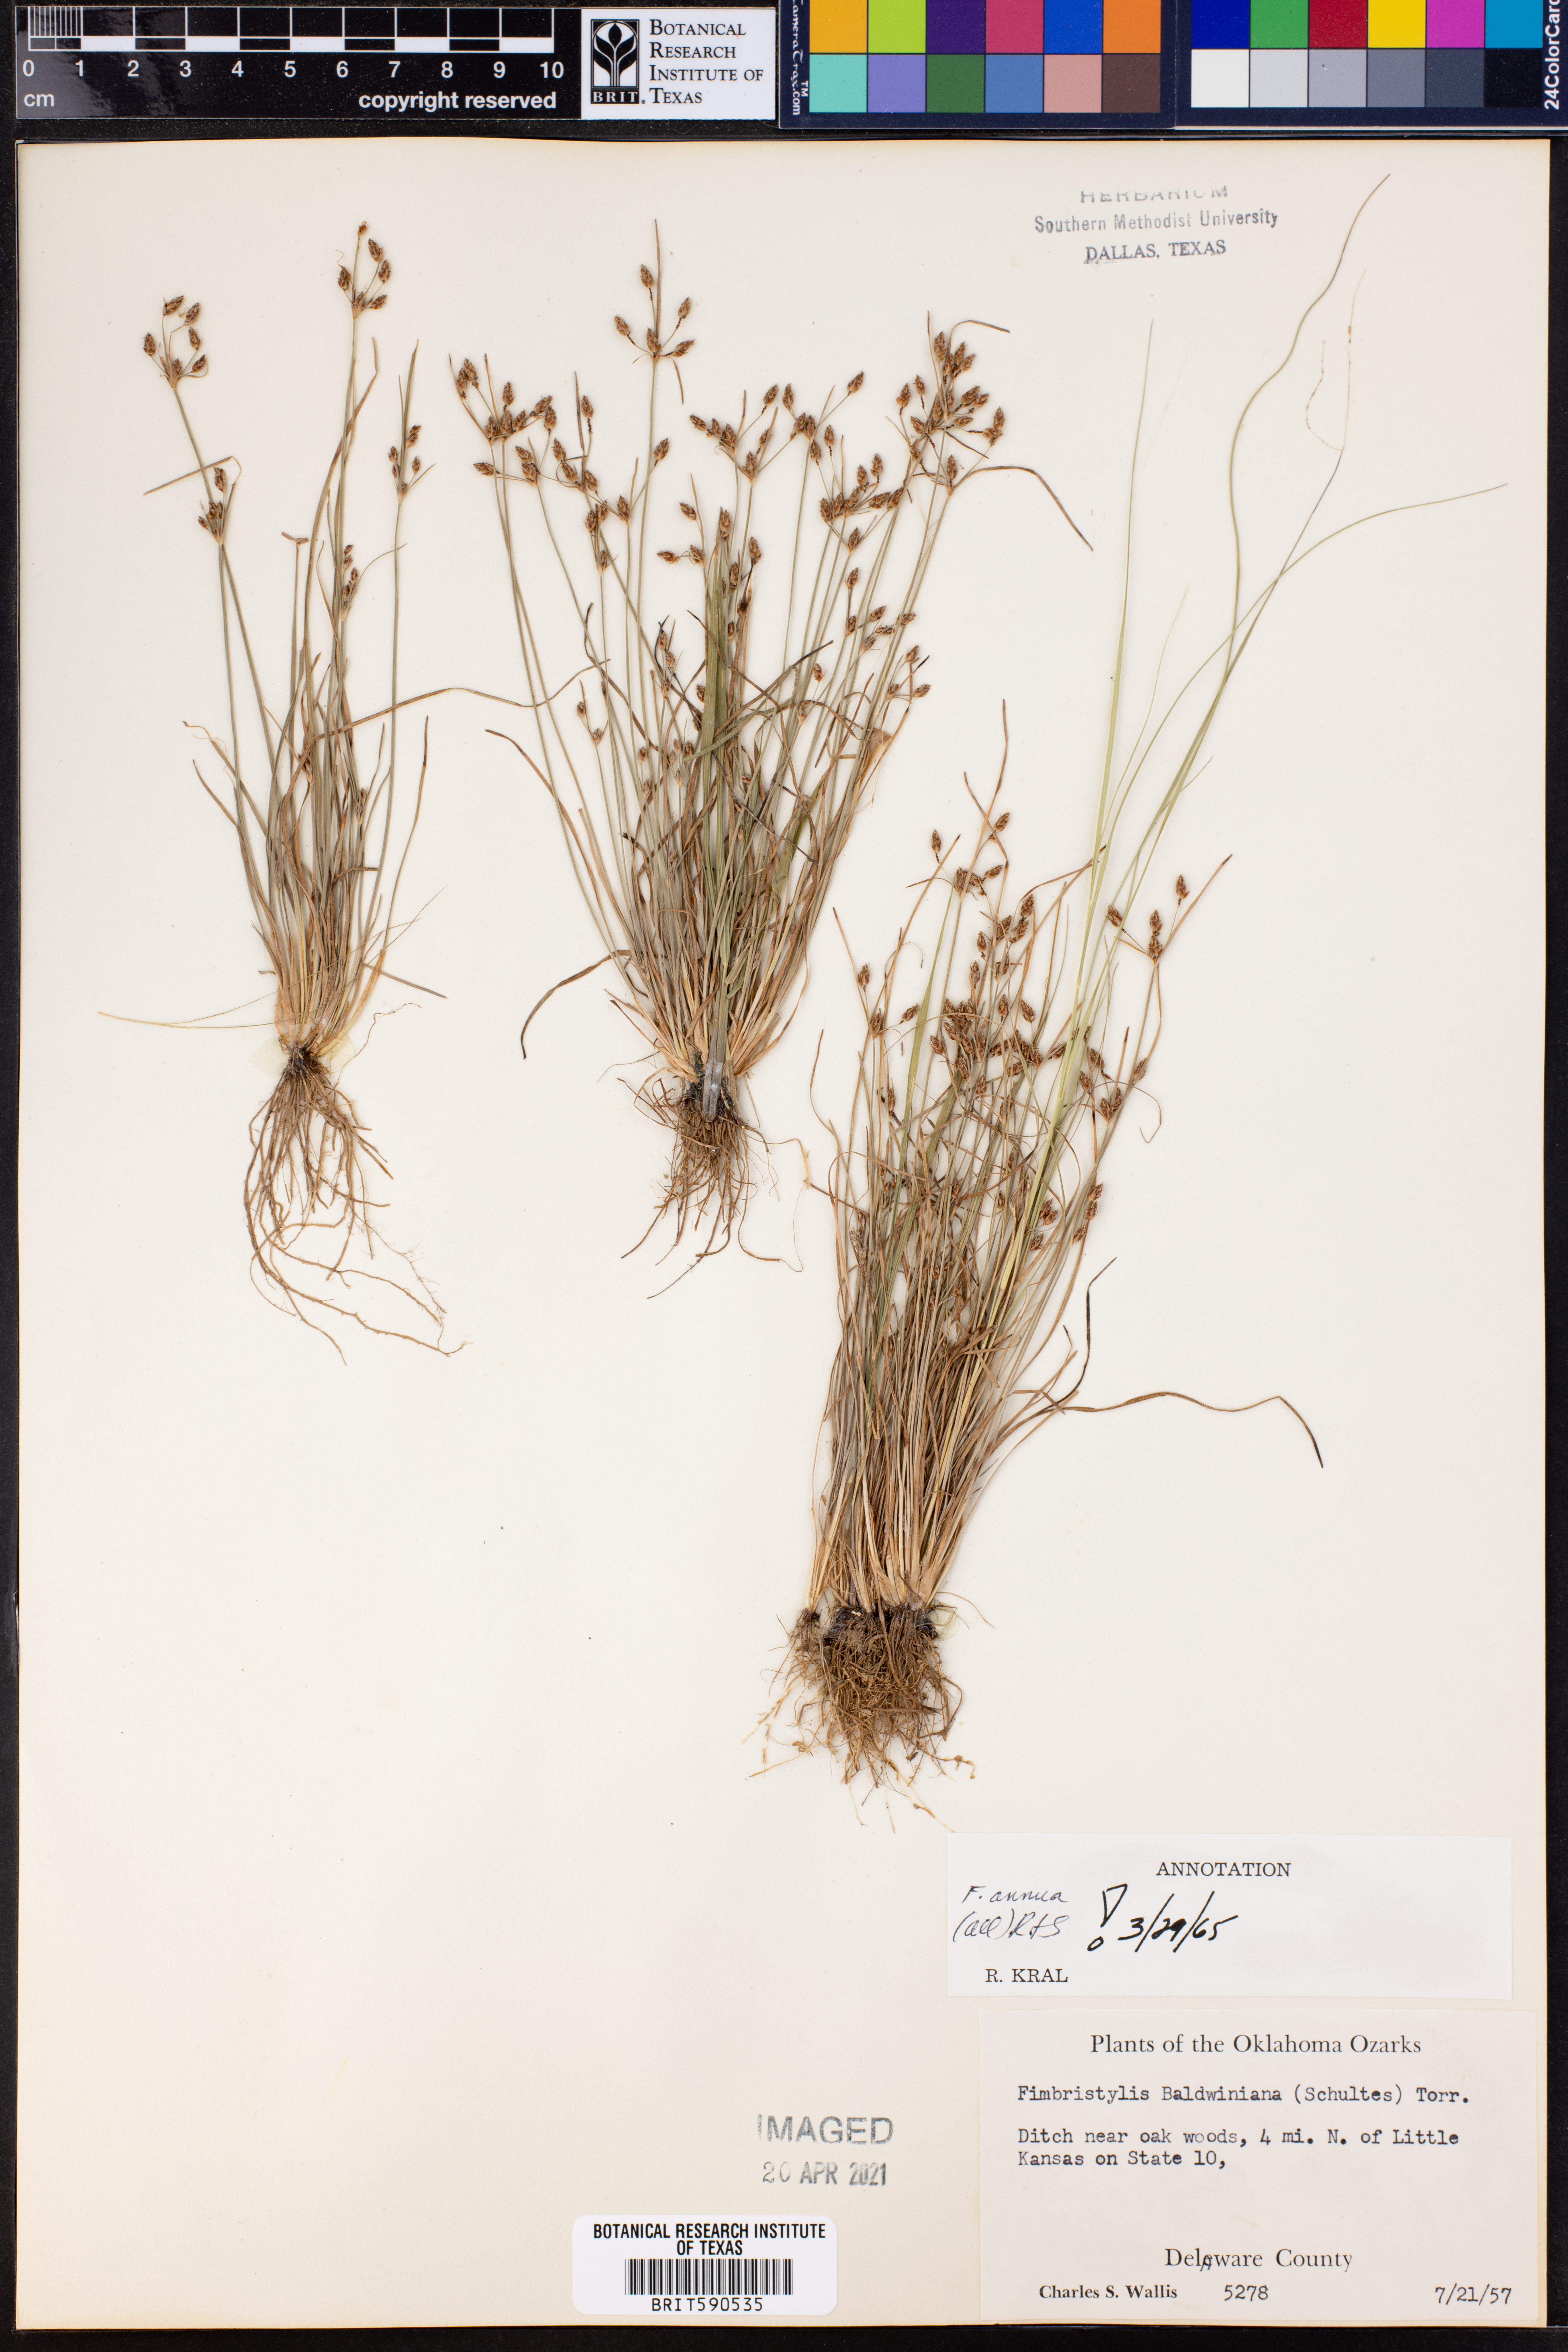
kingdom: Plantae
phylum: Tracheophyta
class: Liliopsida
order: Poales
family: Cyperaceae
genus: Fimbristylis
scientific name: Fimbristylis dichotoma
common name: Forked fimbry
